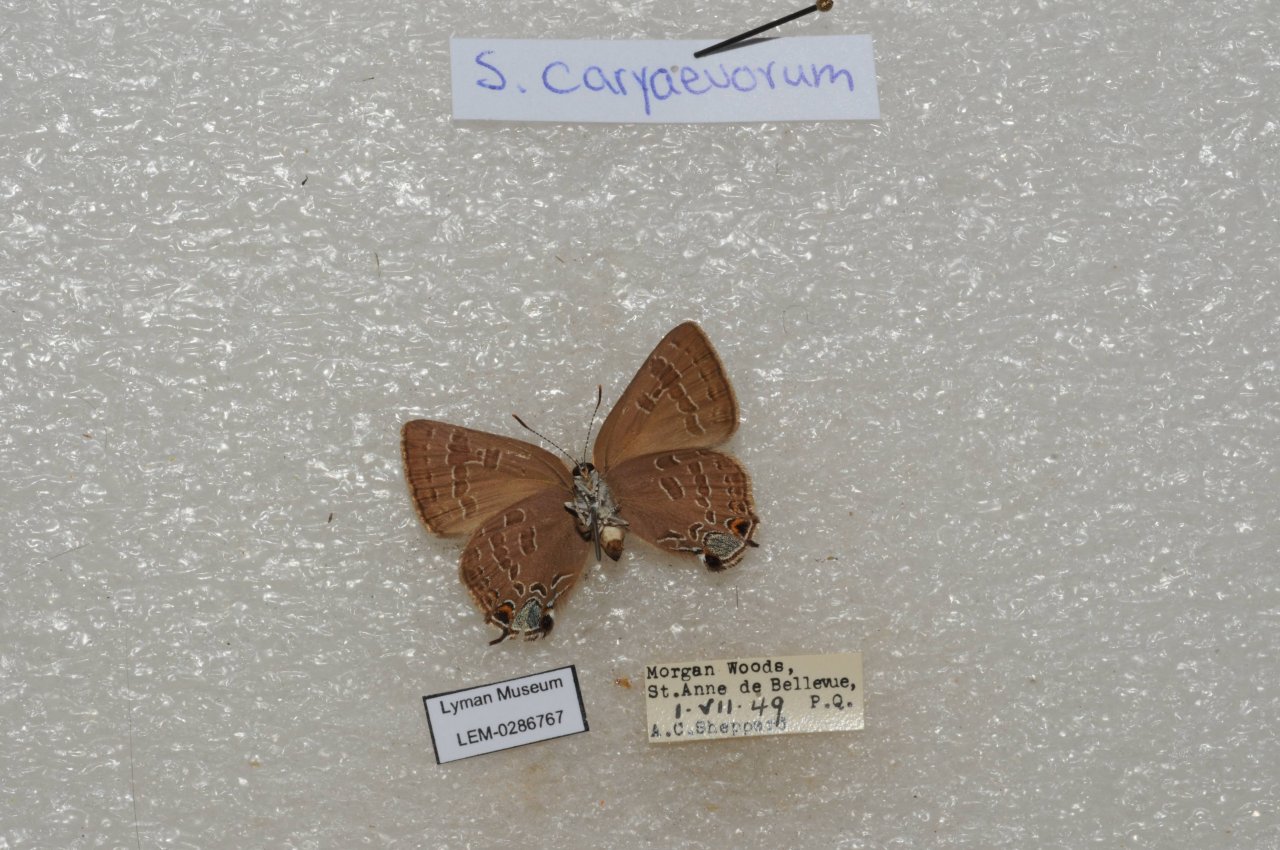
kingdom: Animalia
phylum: Arthropoda
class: Insecta
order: Lepidoptera
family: Lycaenidae
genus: Strymon
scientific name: Strymon caryaevorus
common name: Hickory Hairstreak
